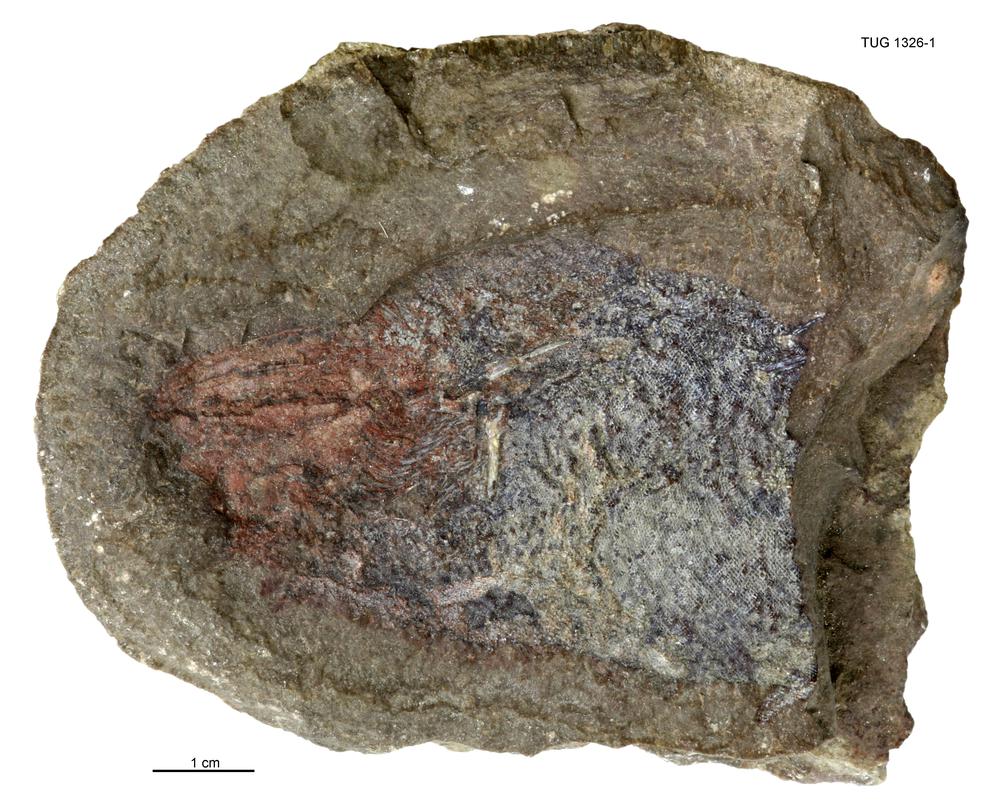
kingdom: Animalia
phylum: Chordata
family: Acanthodidae
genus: Cheiracanthus
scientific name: Cheiracanthus murchisoni
